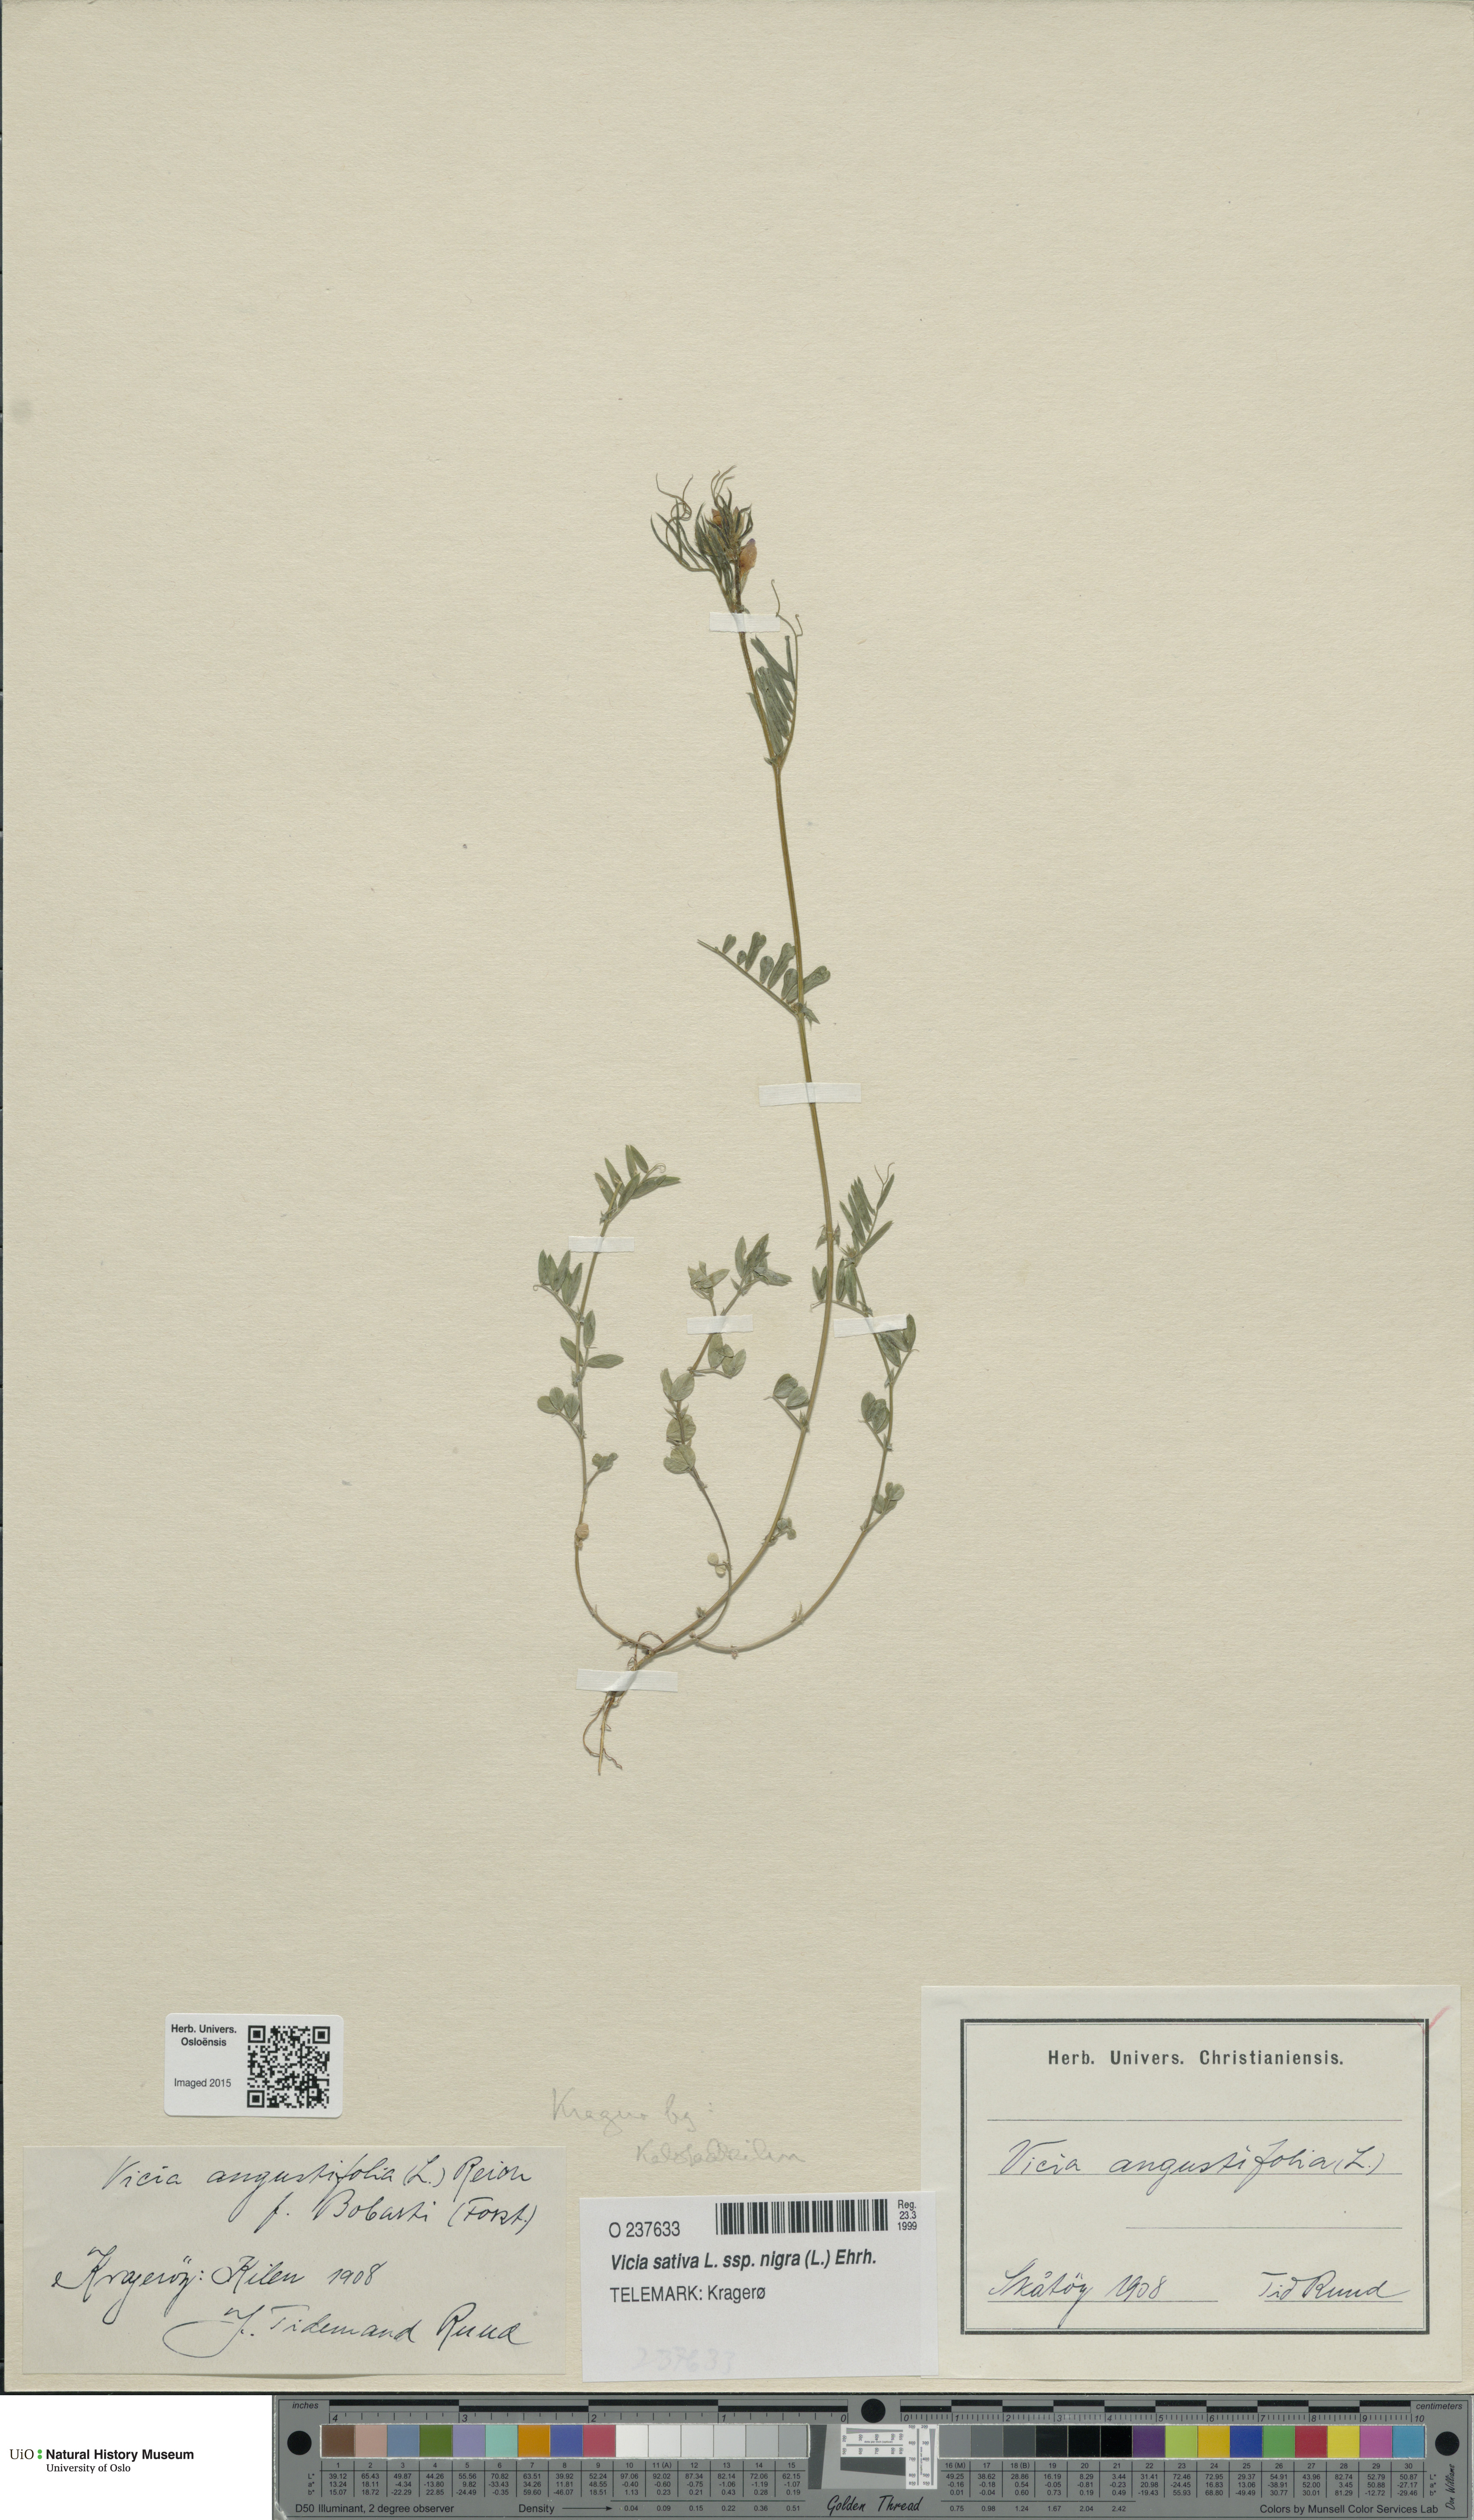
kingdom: Plantae
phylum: Tracheophyta
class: Magnoliopsida
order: Fabales
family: Fabaceae
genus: Vicia
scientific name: Vicia sativa
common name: Garden vetch
